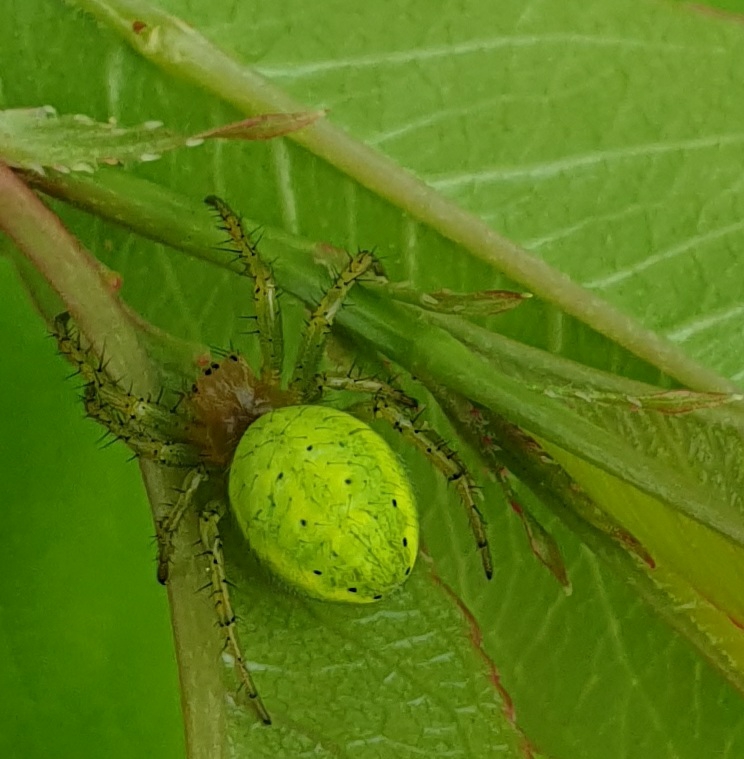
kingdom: Animalia
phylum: Arthropoda
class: Arachnida
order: Araneae
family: Araneidae
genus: Araniella
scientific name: Araniella
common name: Agurkeedderkopslægten
